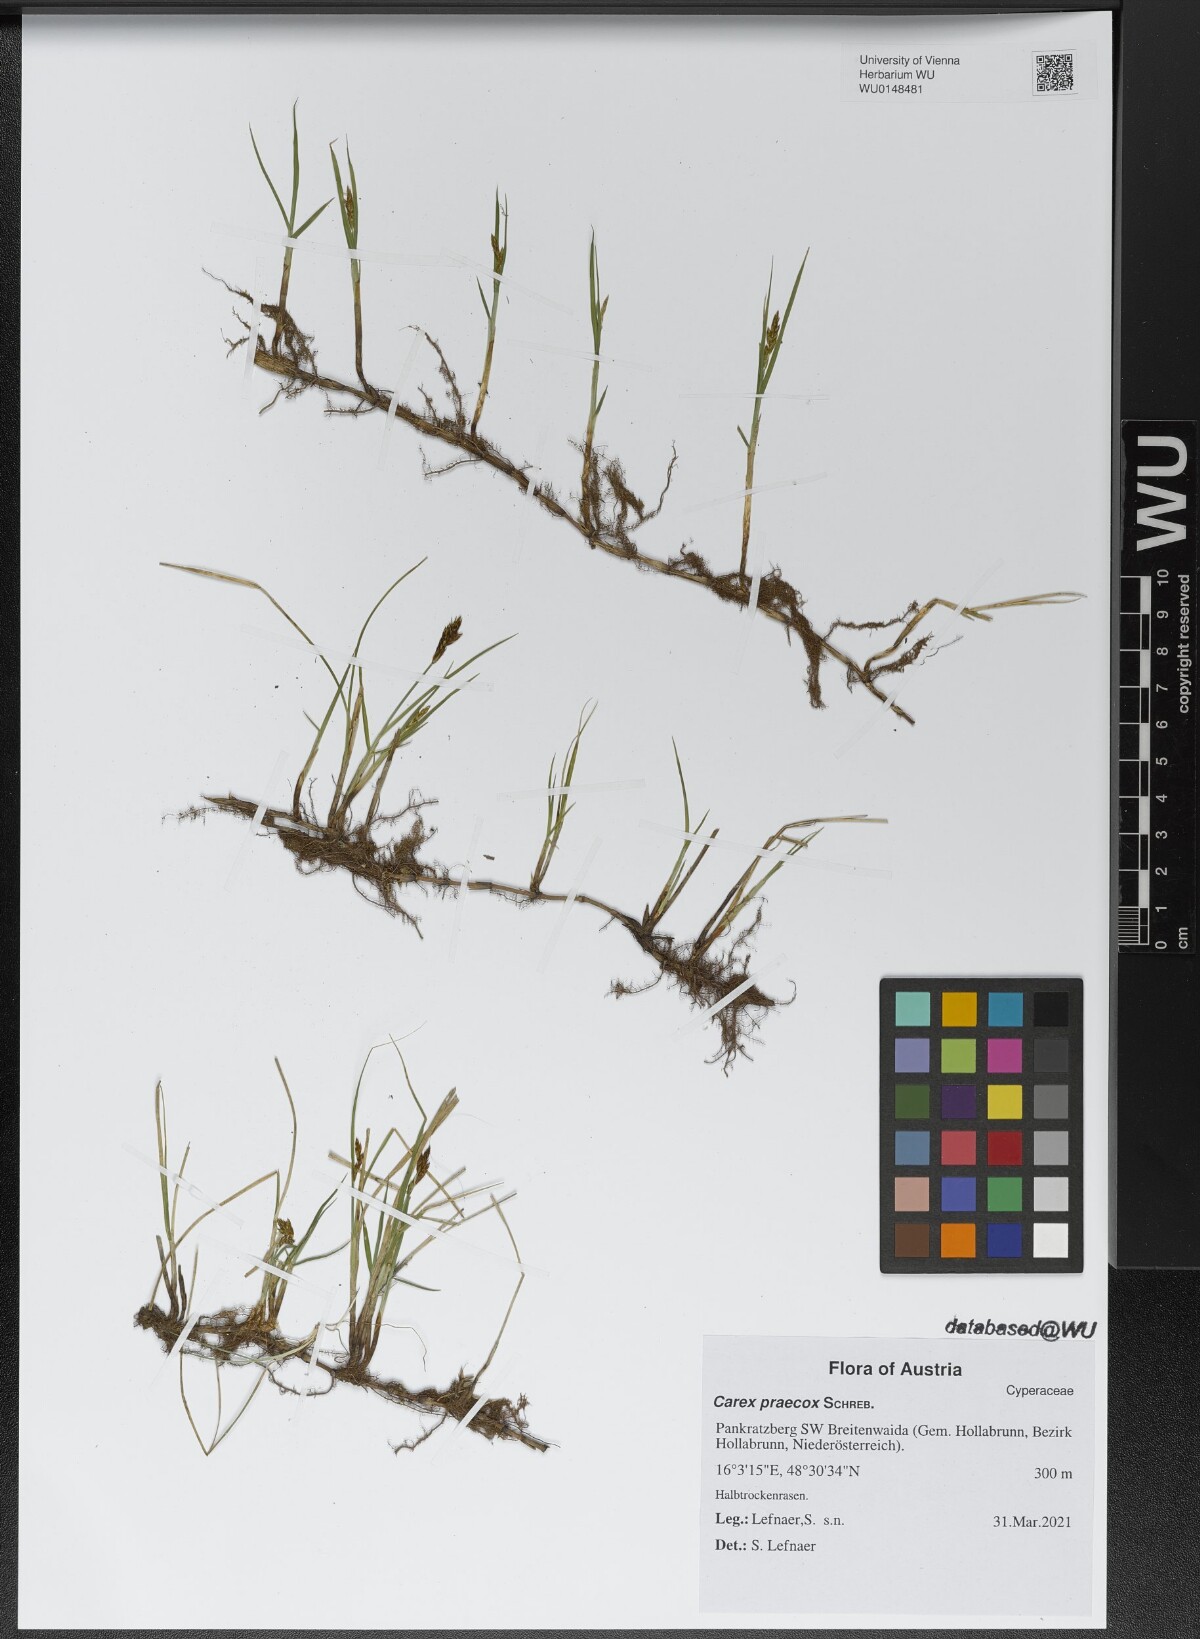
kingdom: Plantae
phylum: Tracheophyta
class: Liliopsida
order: Poales
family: Cyperaceae
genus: Carex
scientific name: Carex praecox
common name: Early sedge
